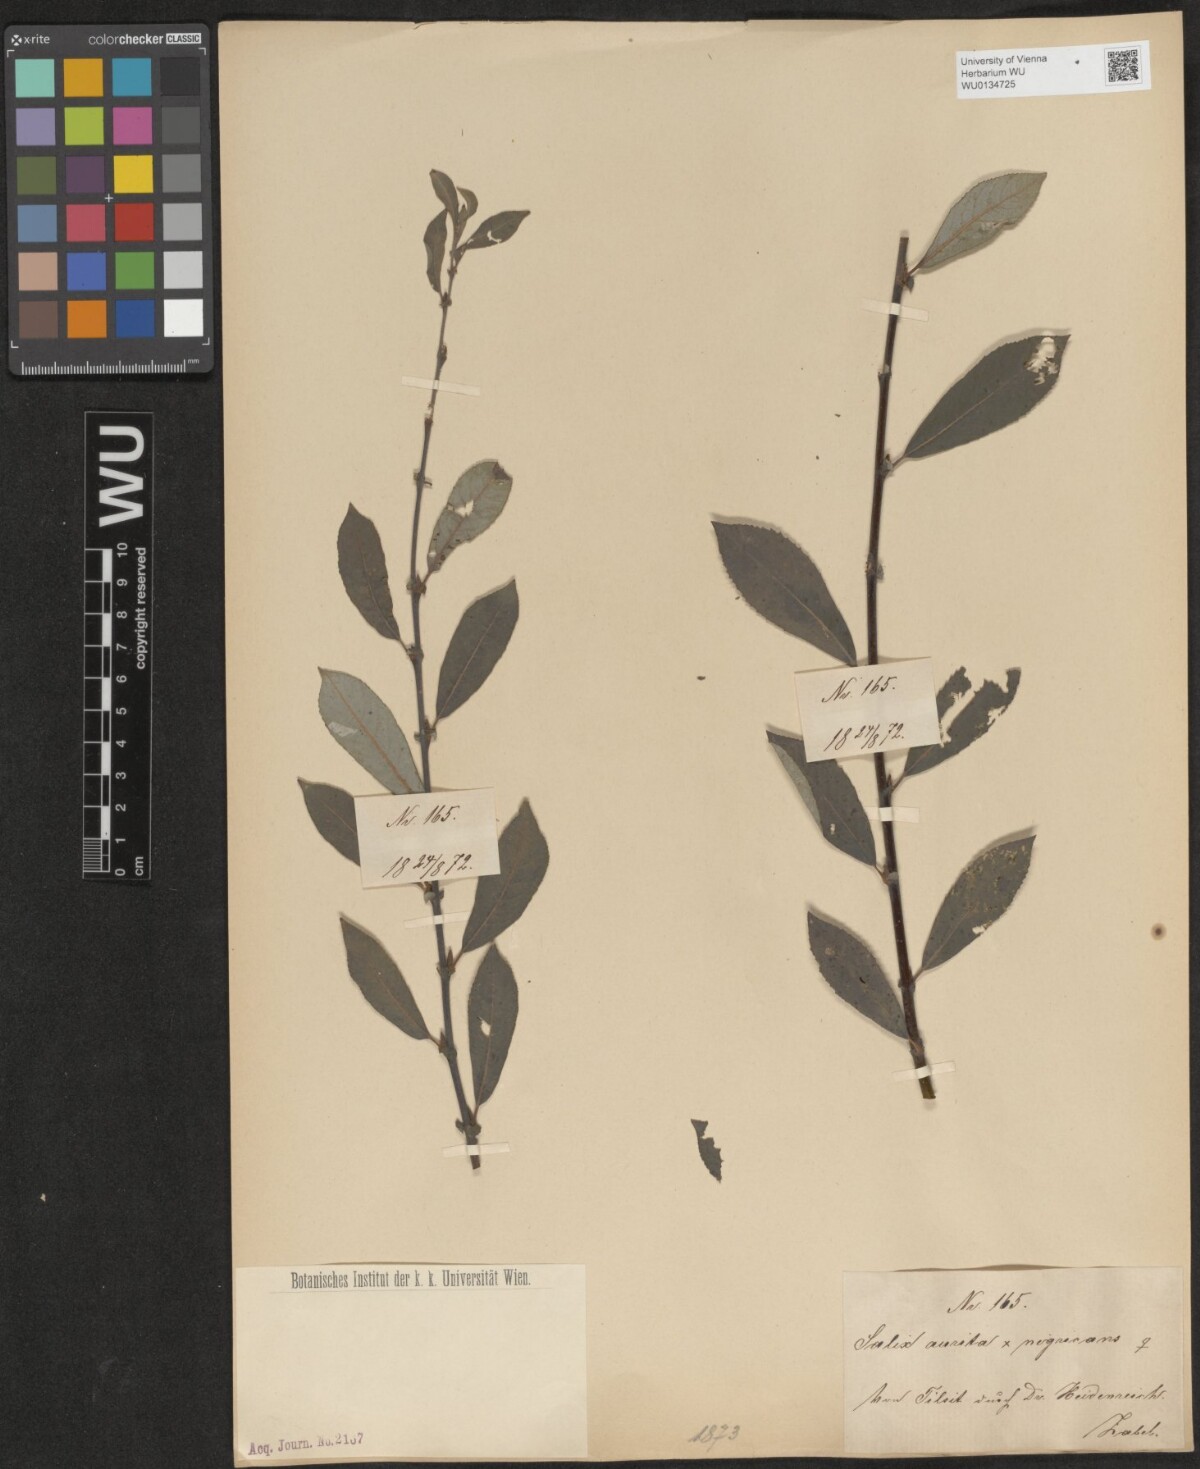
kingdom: Plantae
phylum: Tracheophyta
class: Magnoliopsida
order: Malpighiales
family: Salicaceae
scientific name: Salicaceae
